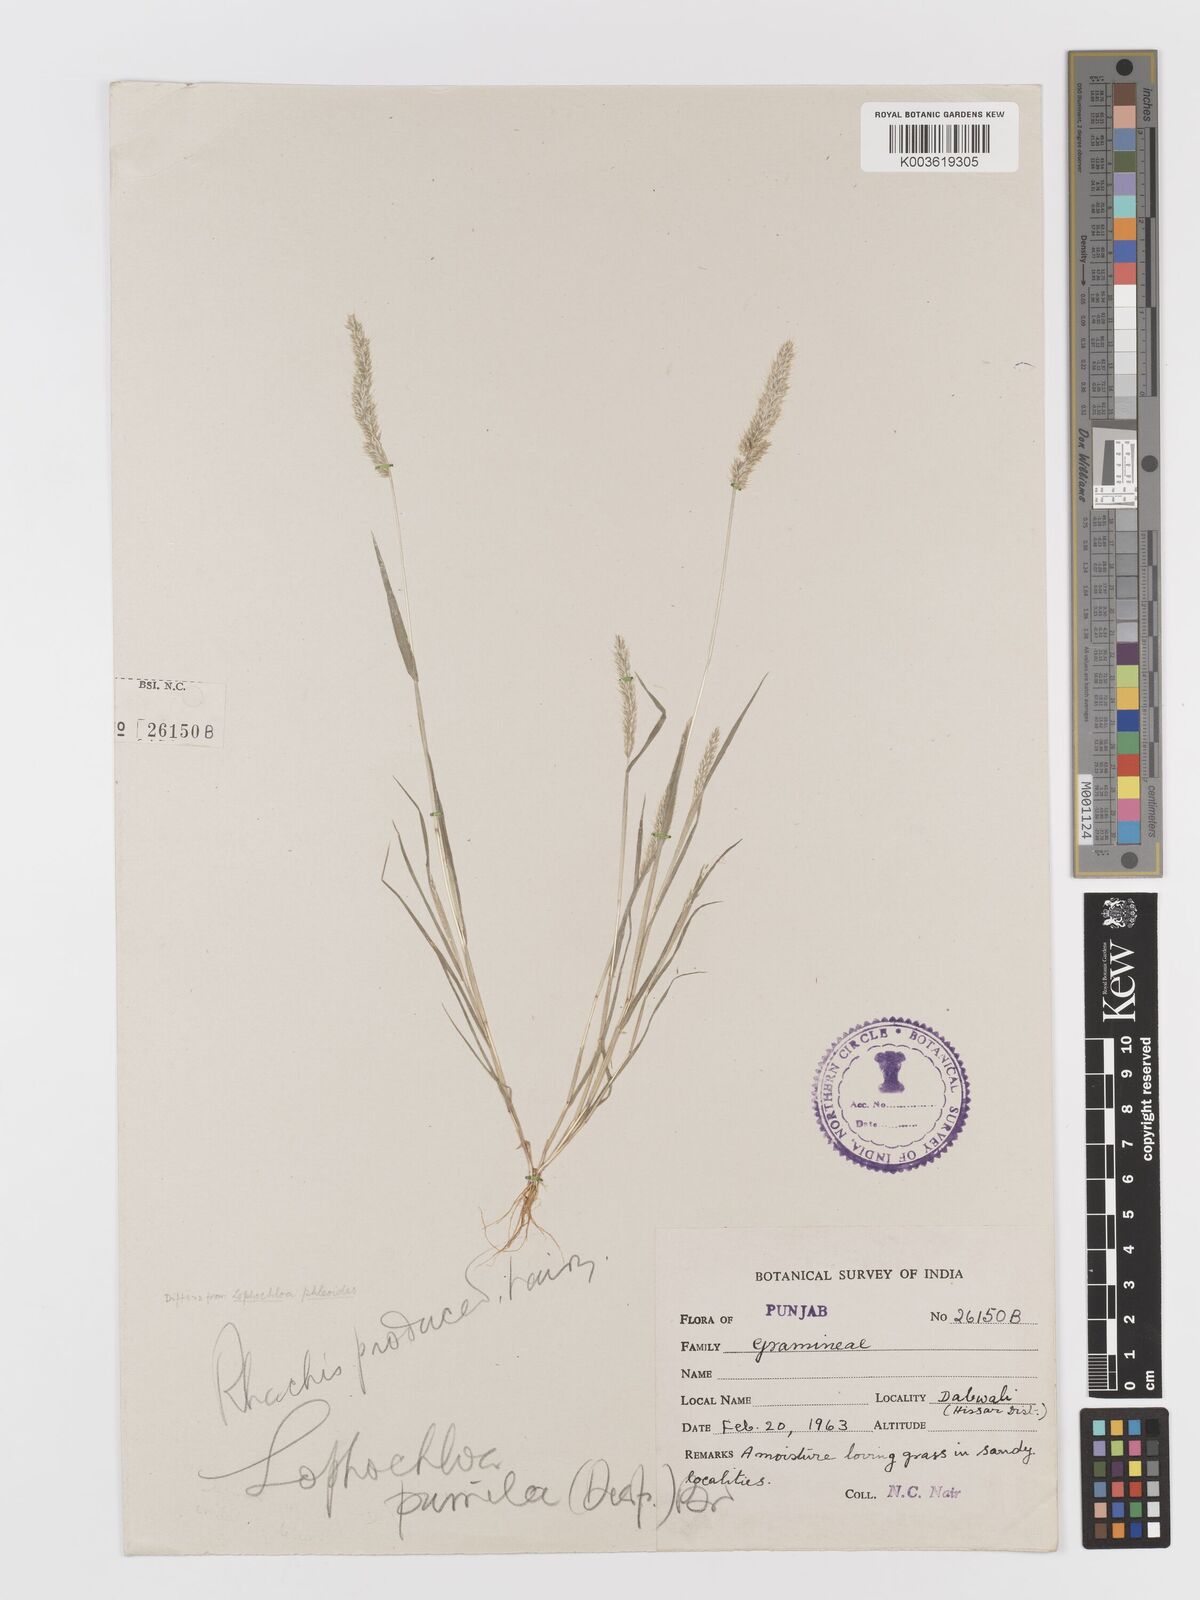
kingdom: Plantae
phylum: Tracheophyta
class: Liliopsida
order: Poales
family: Poaceae
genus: Rostraria
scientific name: Rostraria pumila
